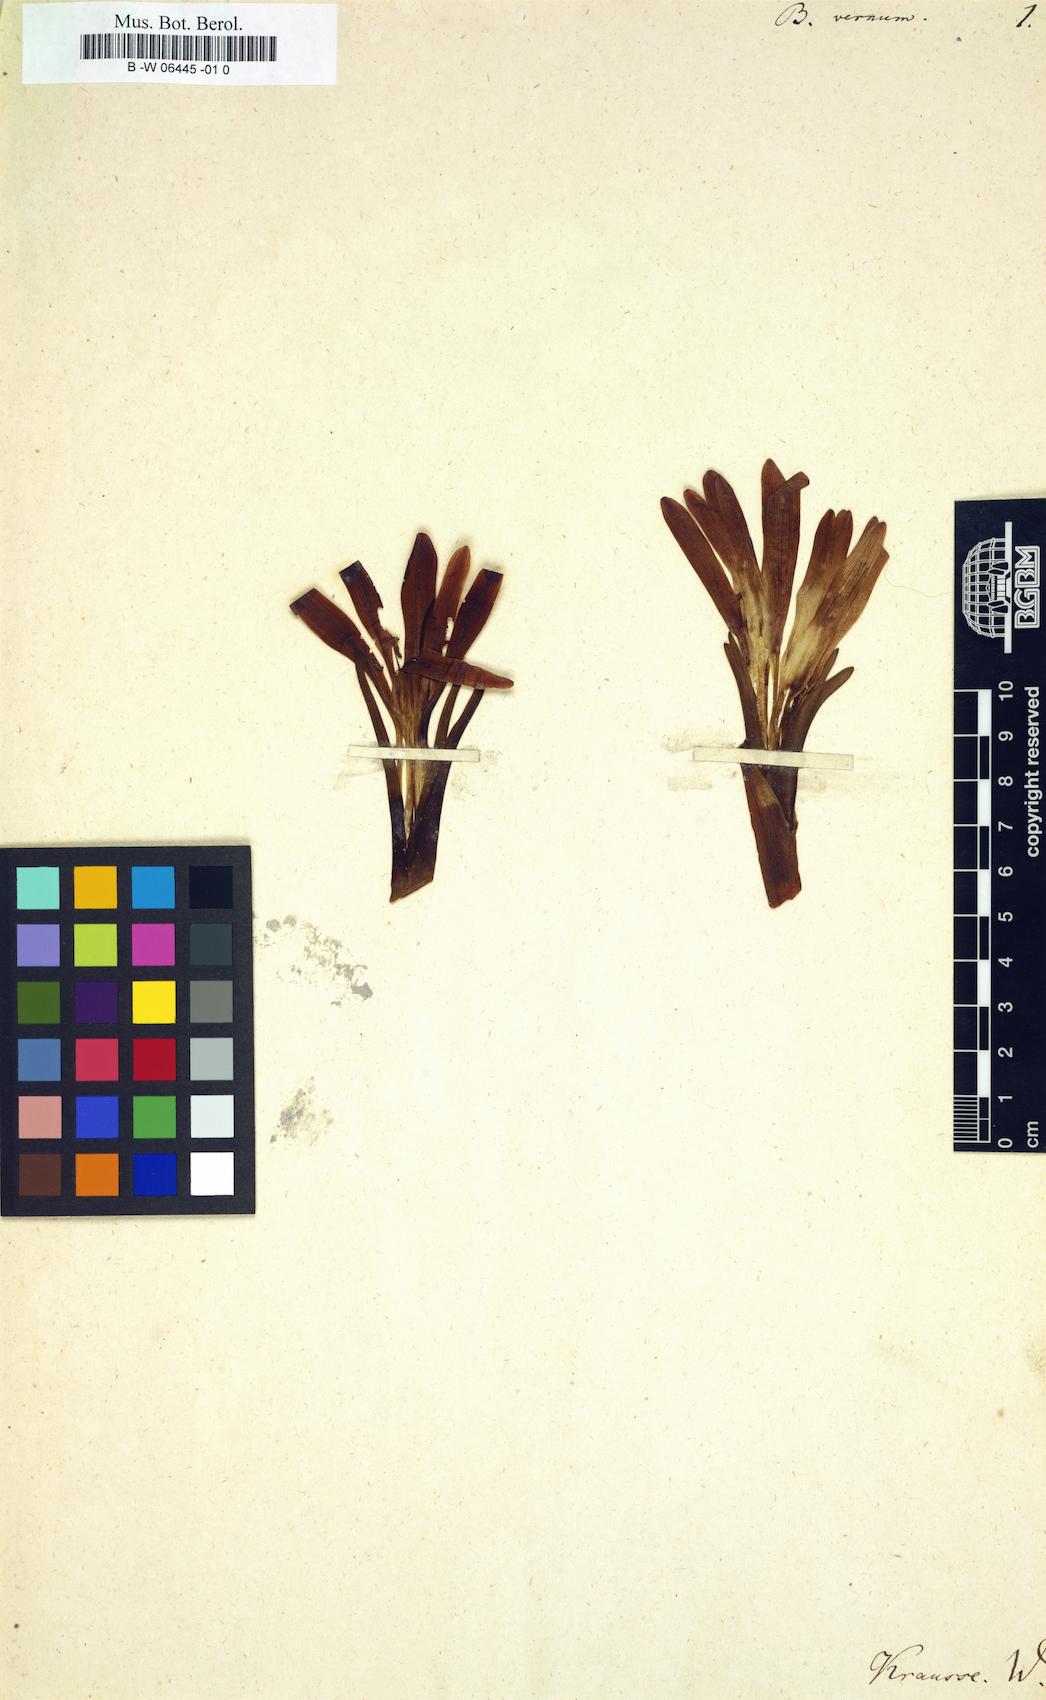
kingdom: Plantae
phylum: Tracheophyta
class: Liliopsida
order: Liliales
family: Colchicaceae
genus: Colchicum
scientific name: Colchicum bulbocodium
